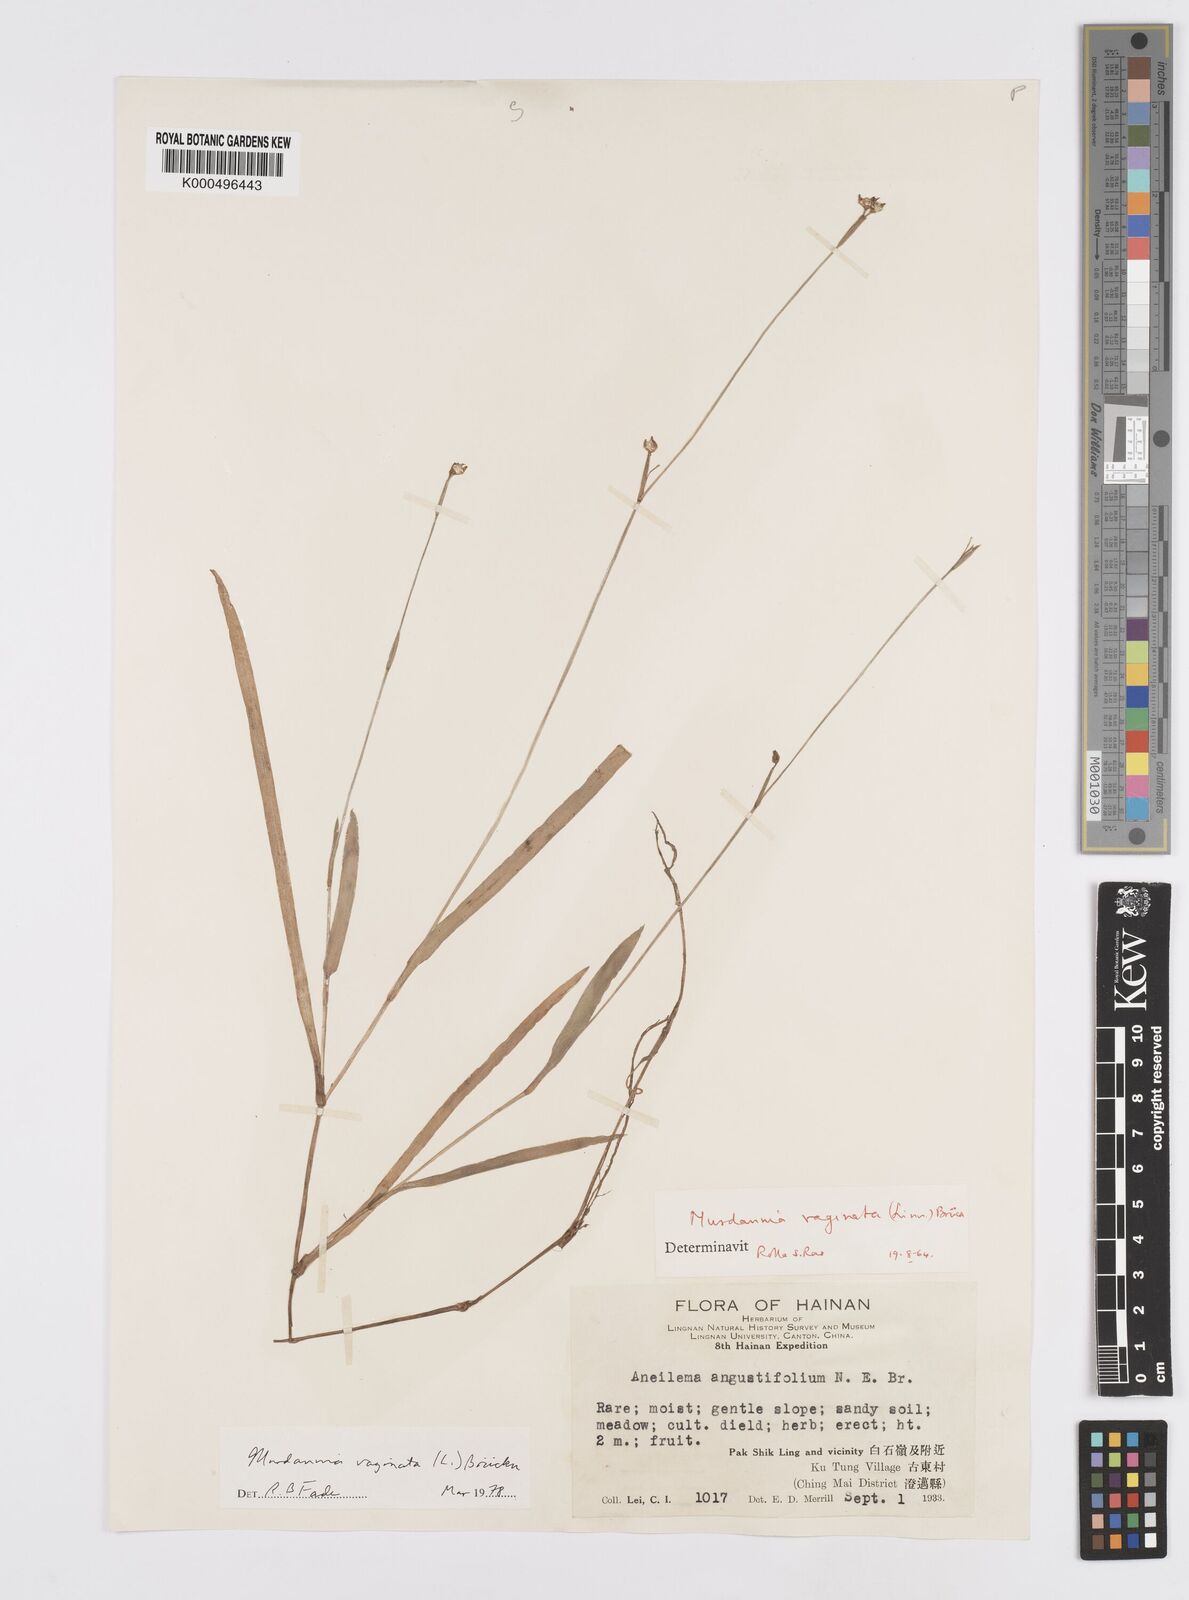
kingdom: Plantae
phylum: Tracheophyta
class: Liliopsida
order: Commelinales
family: Commelinaceae
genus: Murdannia
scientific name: Murdannia
